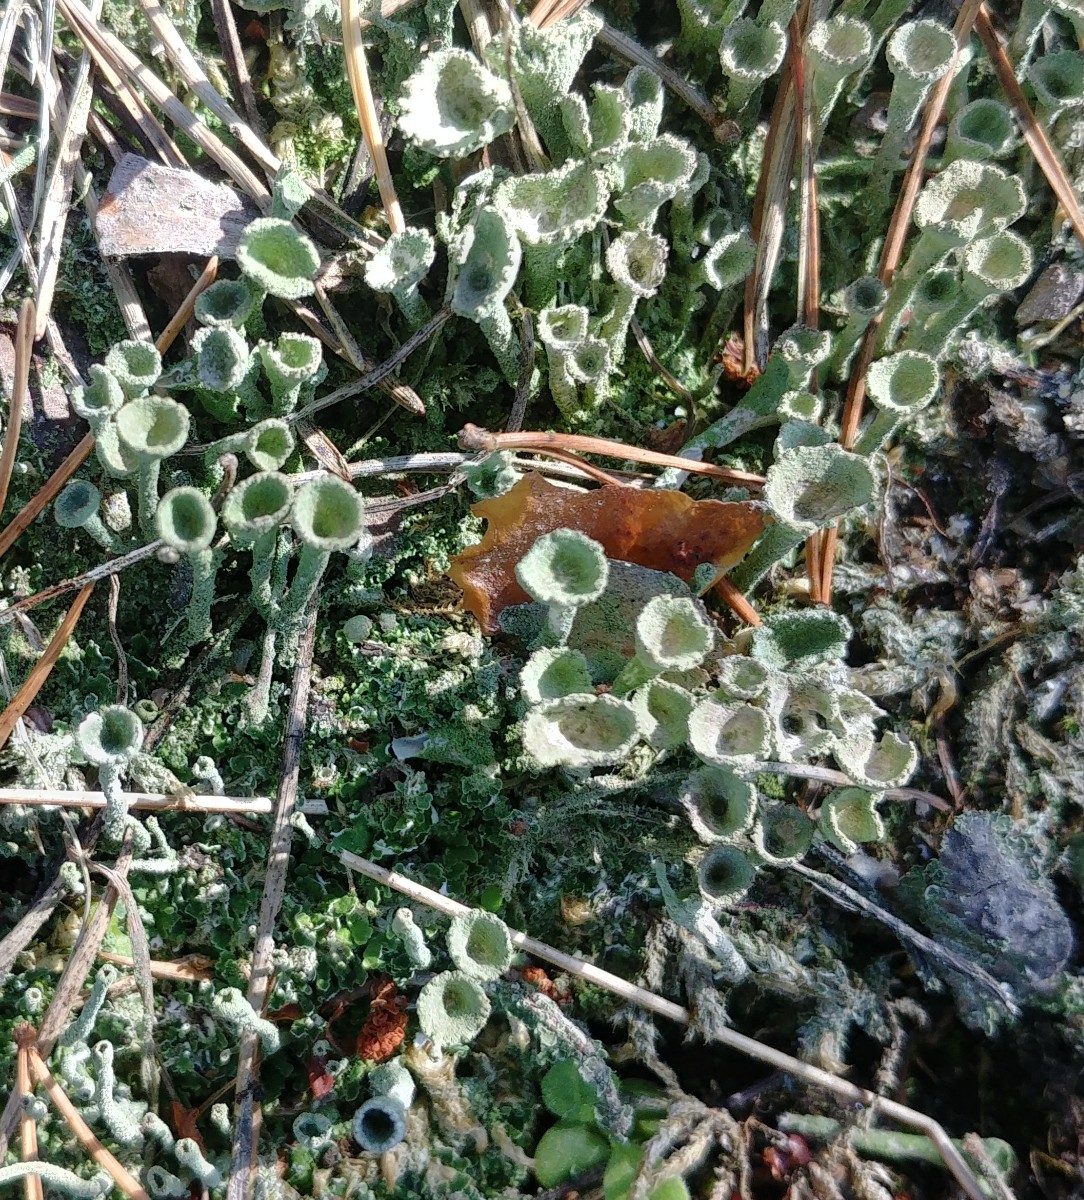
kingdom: Fungi
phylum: Ascomycota
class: Lecanoromycetes
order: Lecanorales
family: Cladoniaceae
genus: Cladonia
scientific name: Cladonia
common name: brungrøn bægerlav
